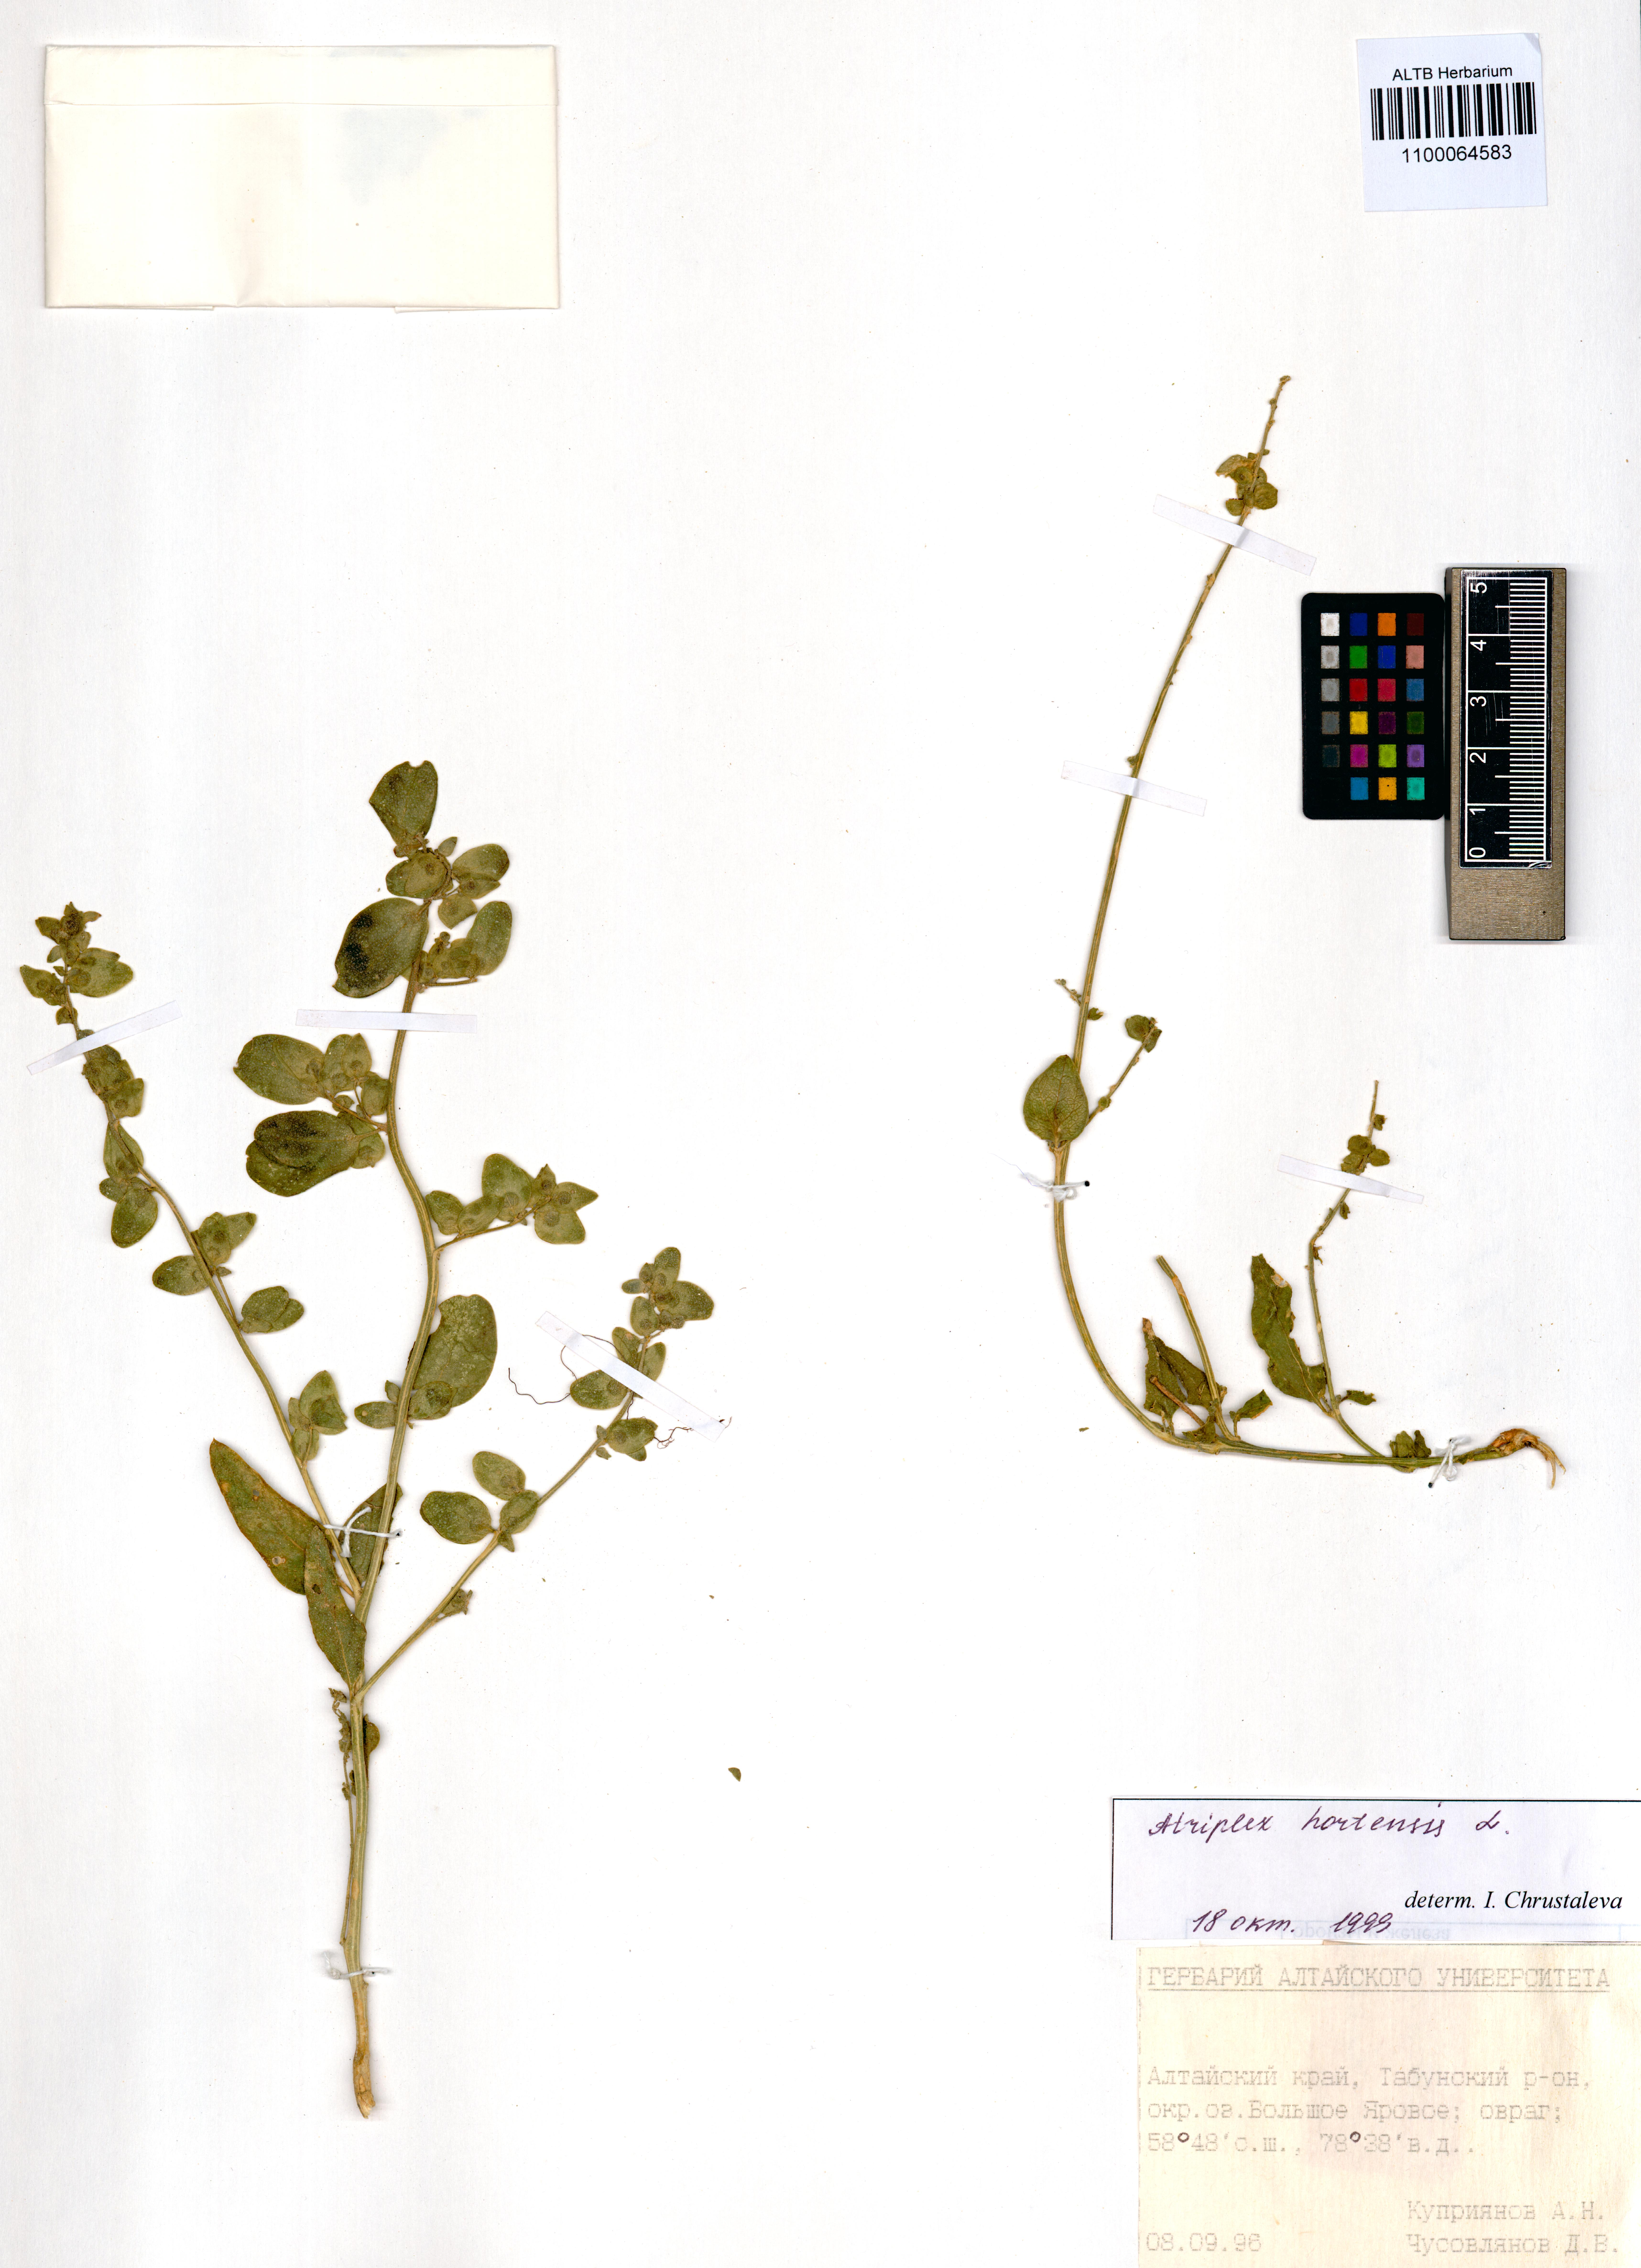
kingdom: Plantae
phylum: Tracheophyta
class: Magnoliopsida
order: Caryophyllales
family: Amaranthaceae
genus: Atriplex
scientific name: Atriplex hortensis
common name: Garden orache
